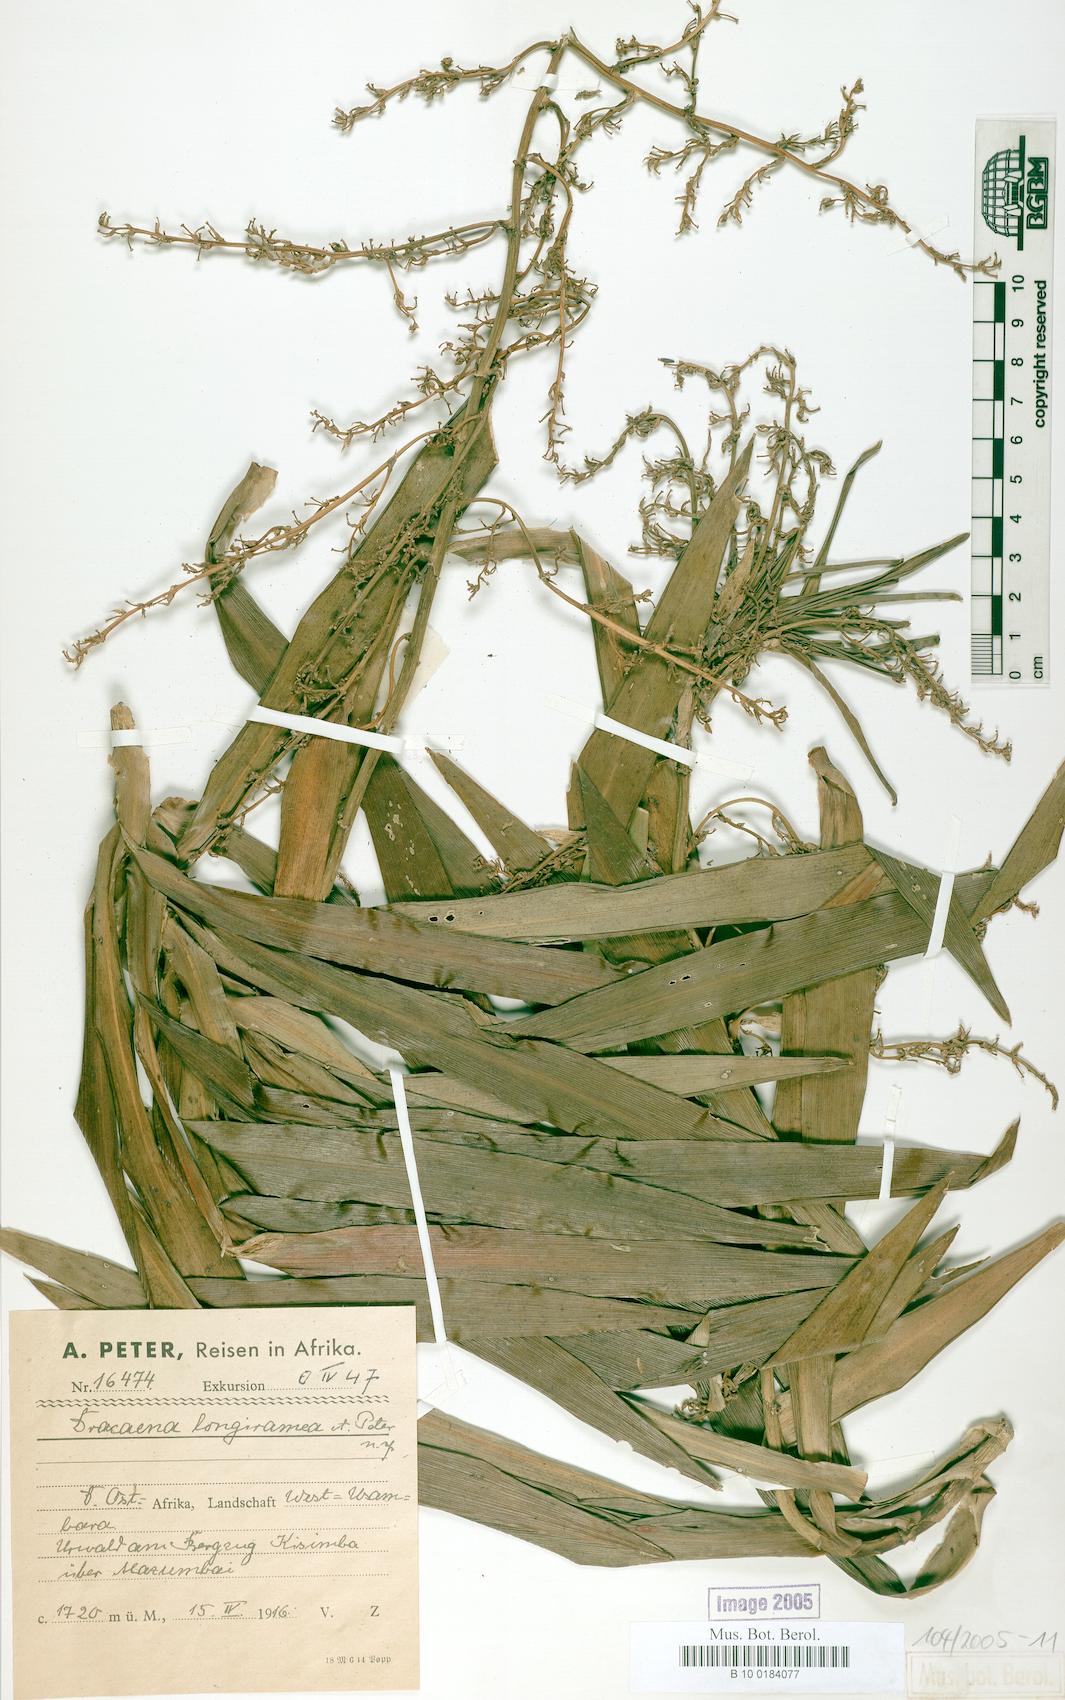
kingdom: Plantae
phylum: Tracheophyta
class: Liliopsida
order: Asparagales
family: Asparagaceae
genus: Dracaena
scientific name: Dracaena afromontana
